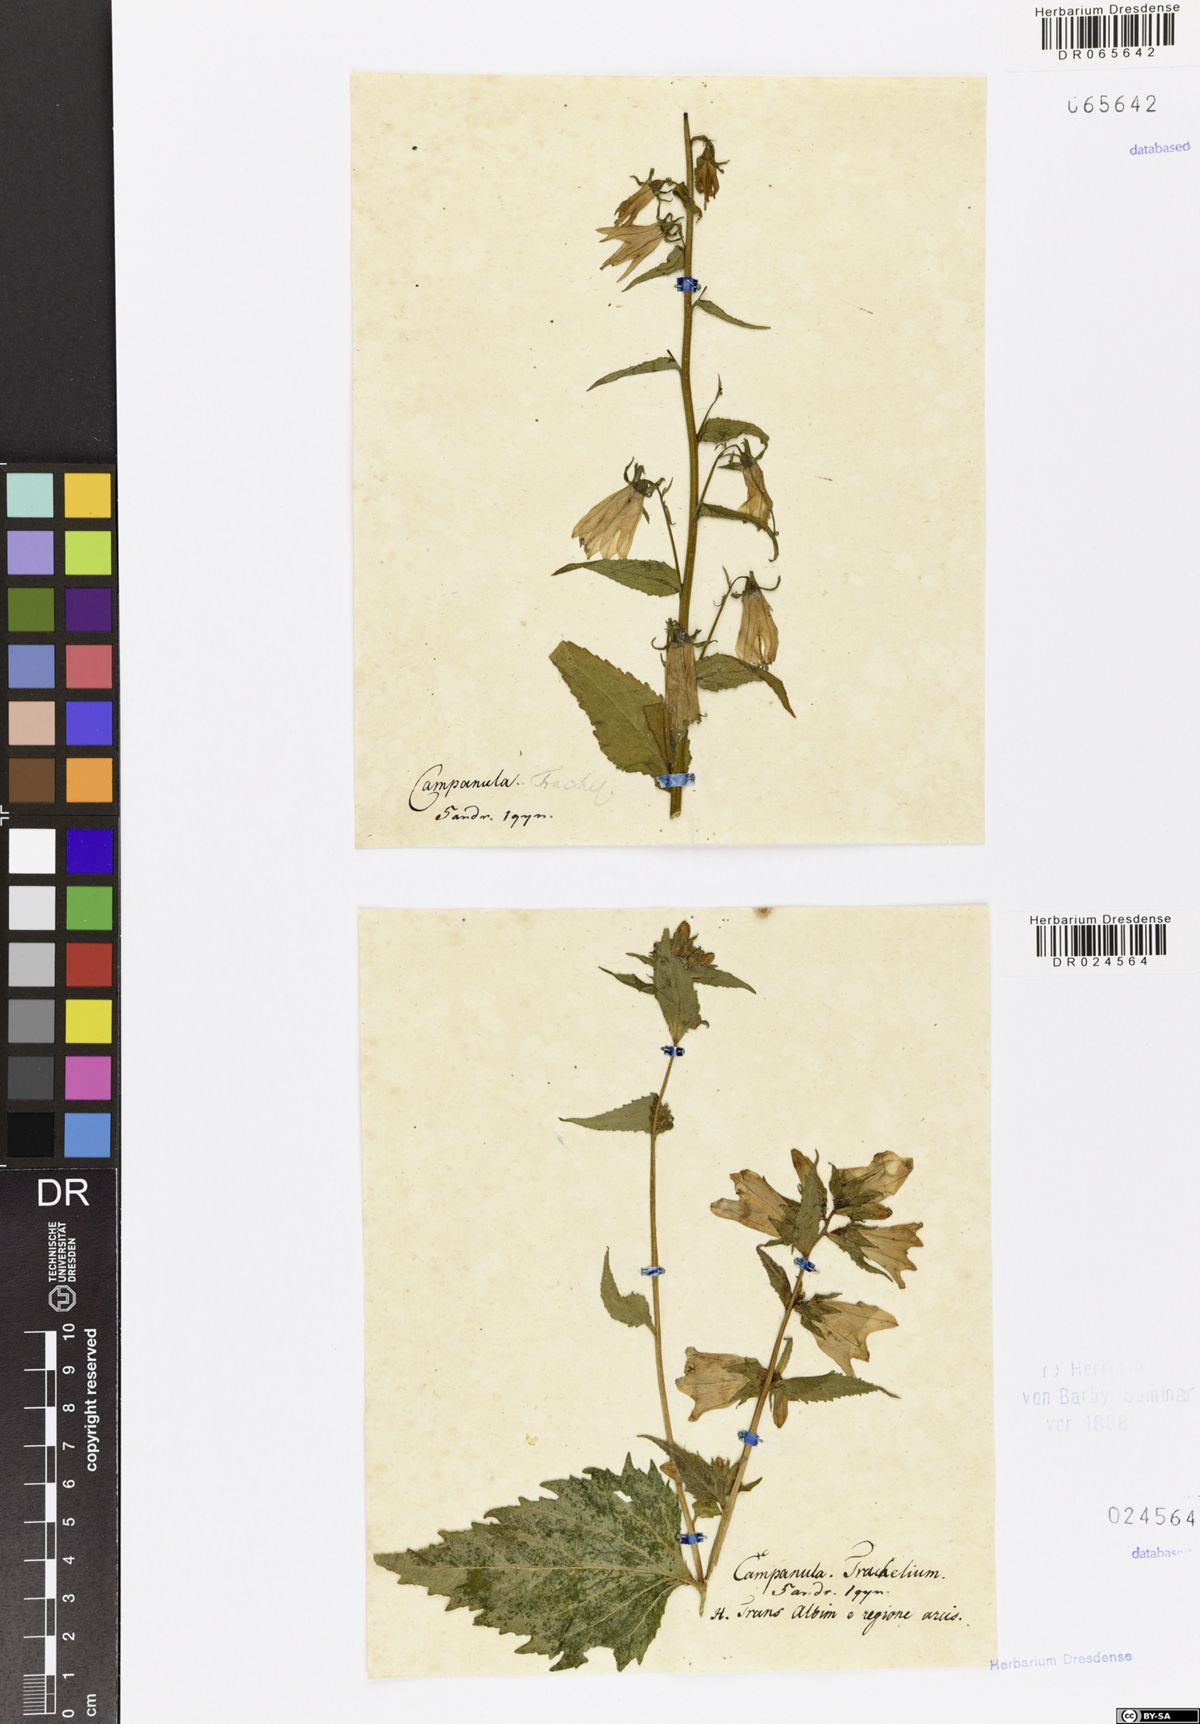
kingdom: Plantae
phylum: Tracheophyta
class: Magnoliopsida
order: Asterales
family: Campanulaceae
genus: Campanula
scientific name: Campanula rapunculoides
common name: Creeping bellflower
